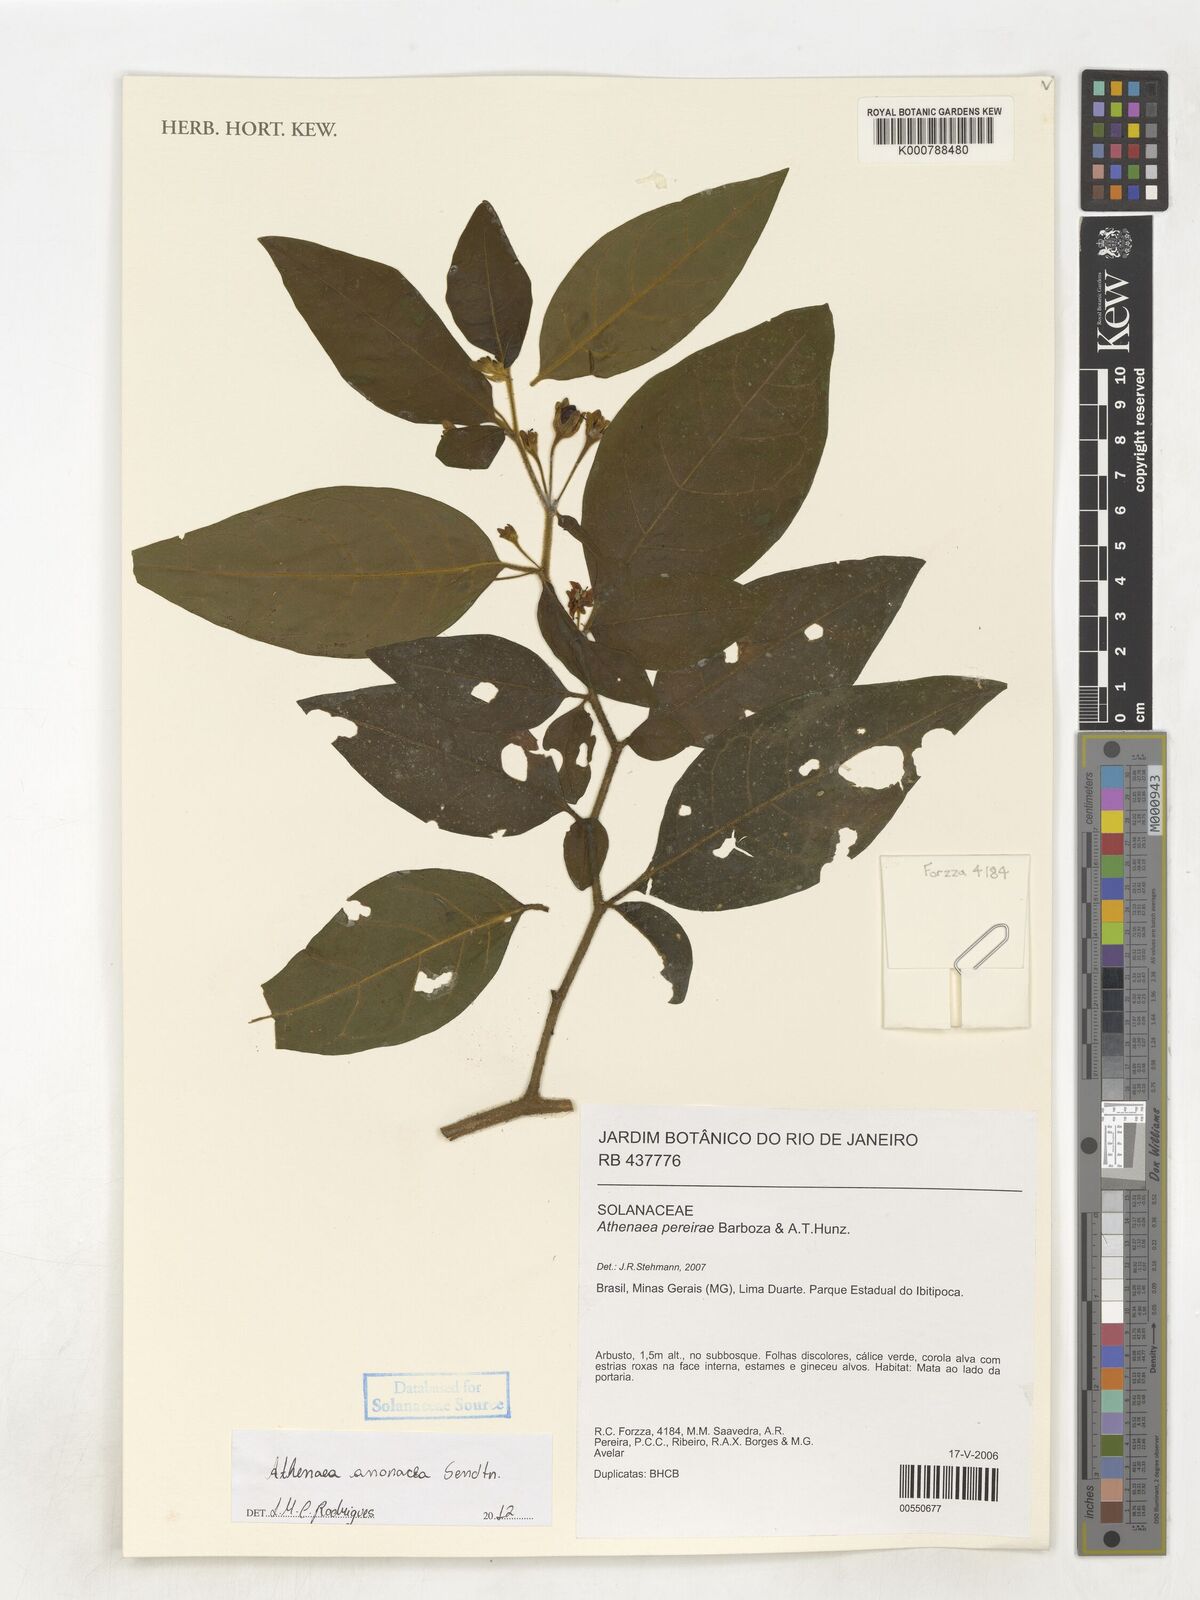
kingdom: Plantae
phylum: Tracheophyta
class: Magnoliopsida
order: Solanales
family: Solanaceae
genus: Athenaea
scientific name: Athenaea anonacea
